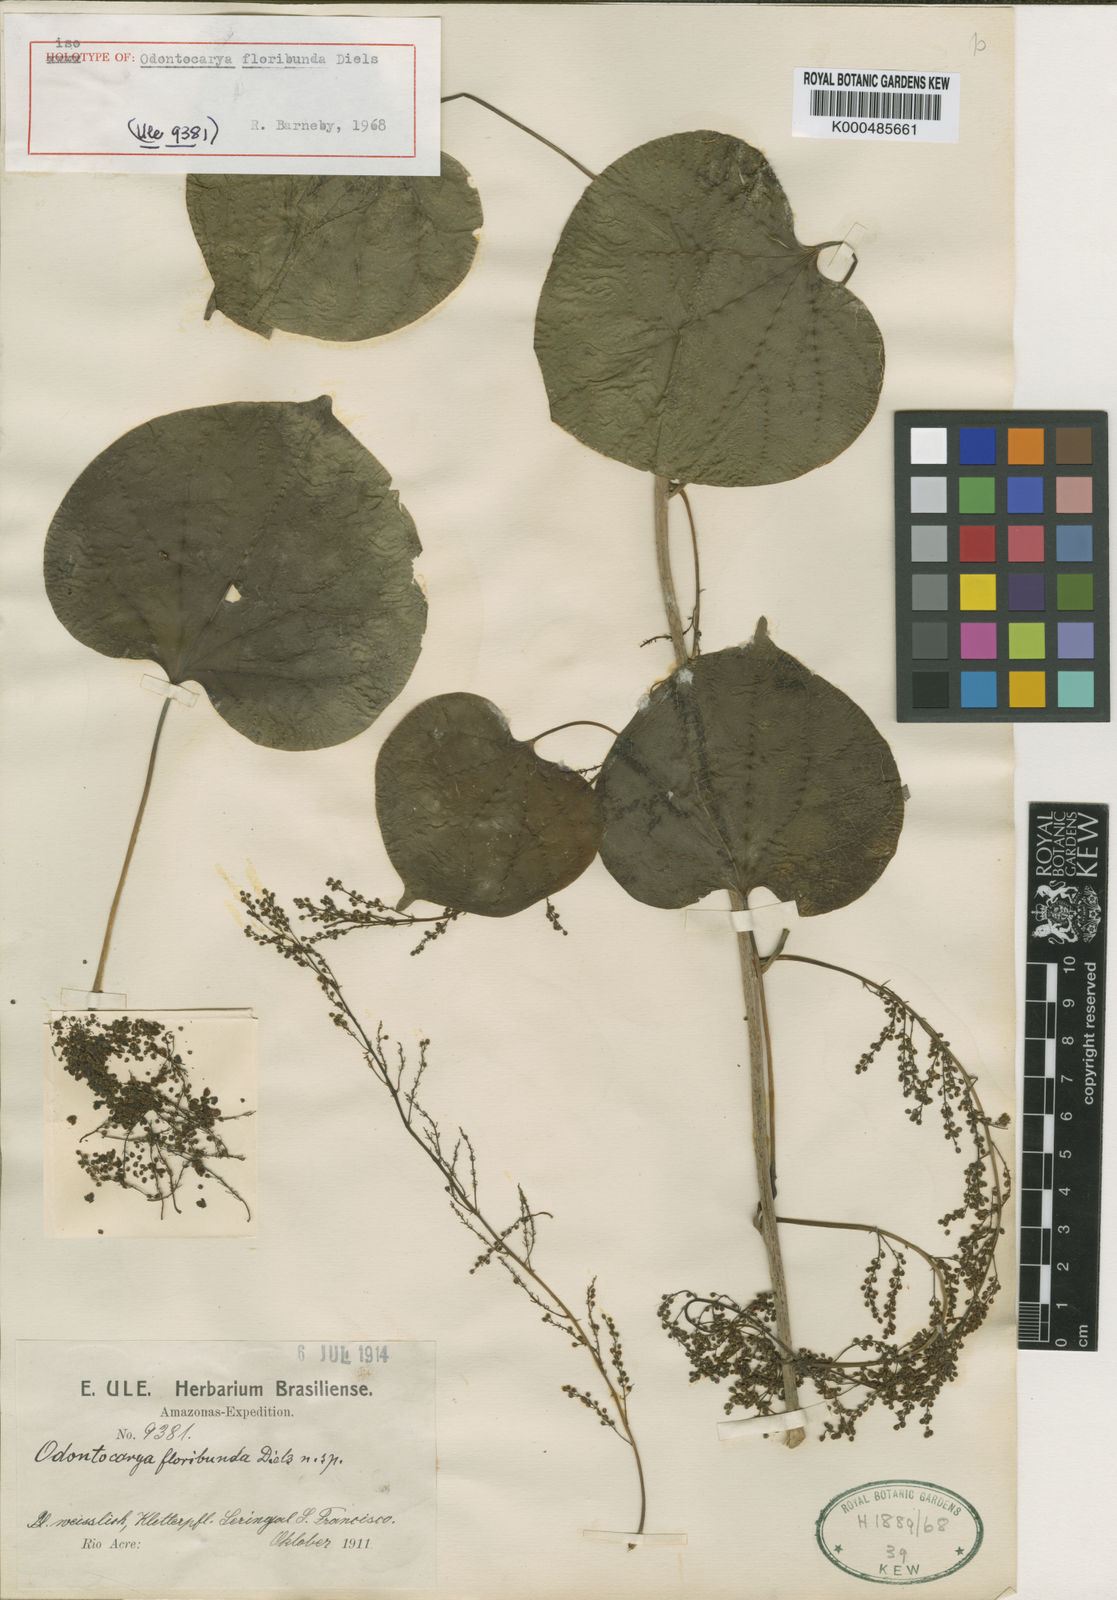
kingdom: Plantae
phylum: Tracheophyta
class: Magnoliopsida
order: Ranunculales
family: Menispermaceae
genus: Odontocarya
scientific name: Odontocarya floribunda
